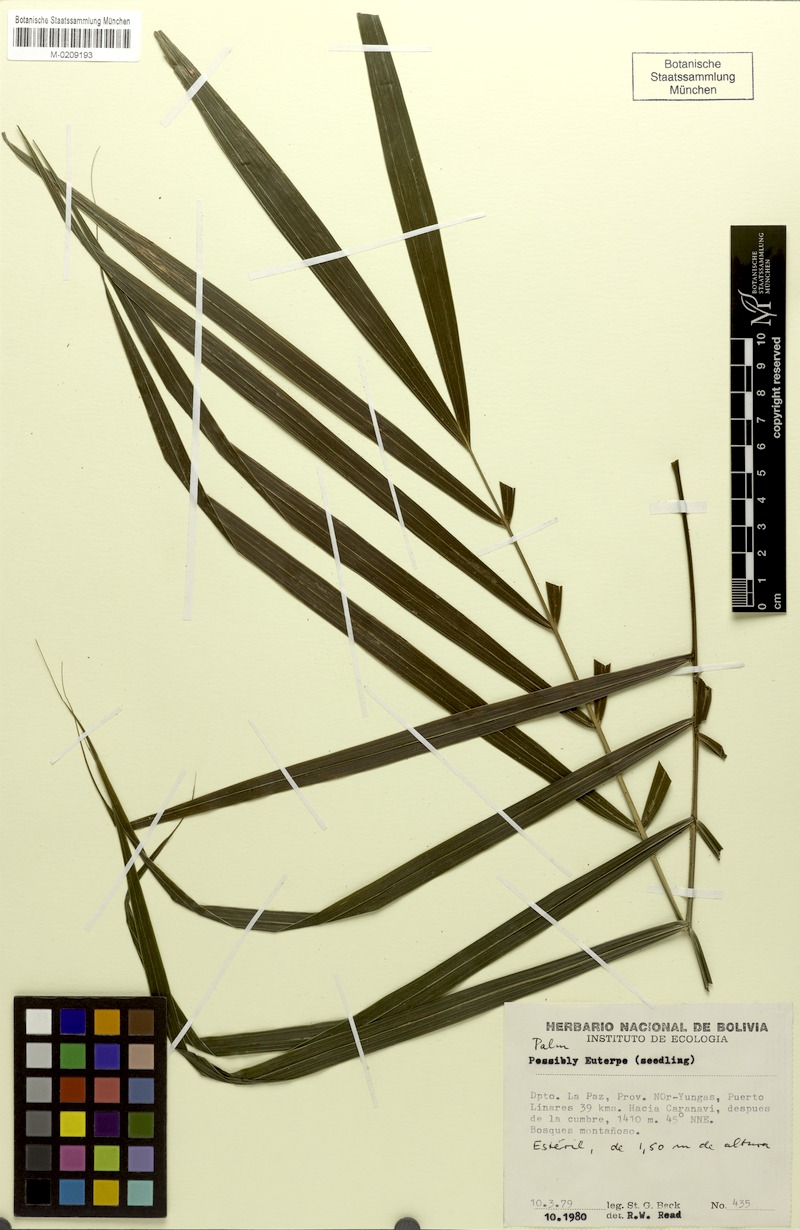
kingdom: Plantae
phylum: Tracheophyta
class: Liliopsida
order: Arecales
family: Arecaceae
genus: Euterpe
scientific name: Euterpe
